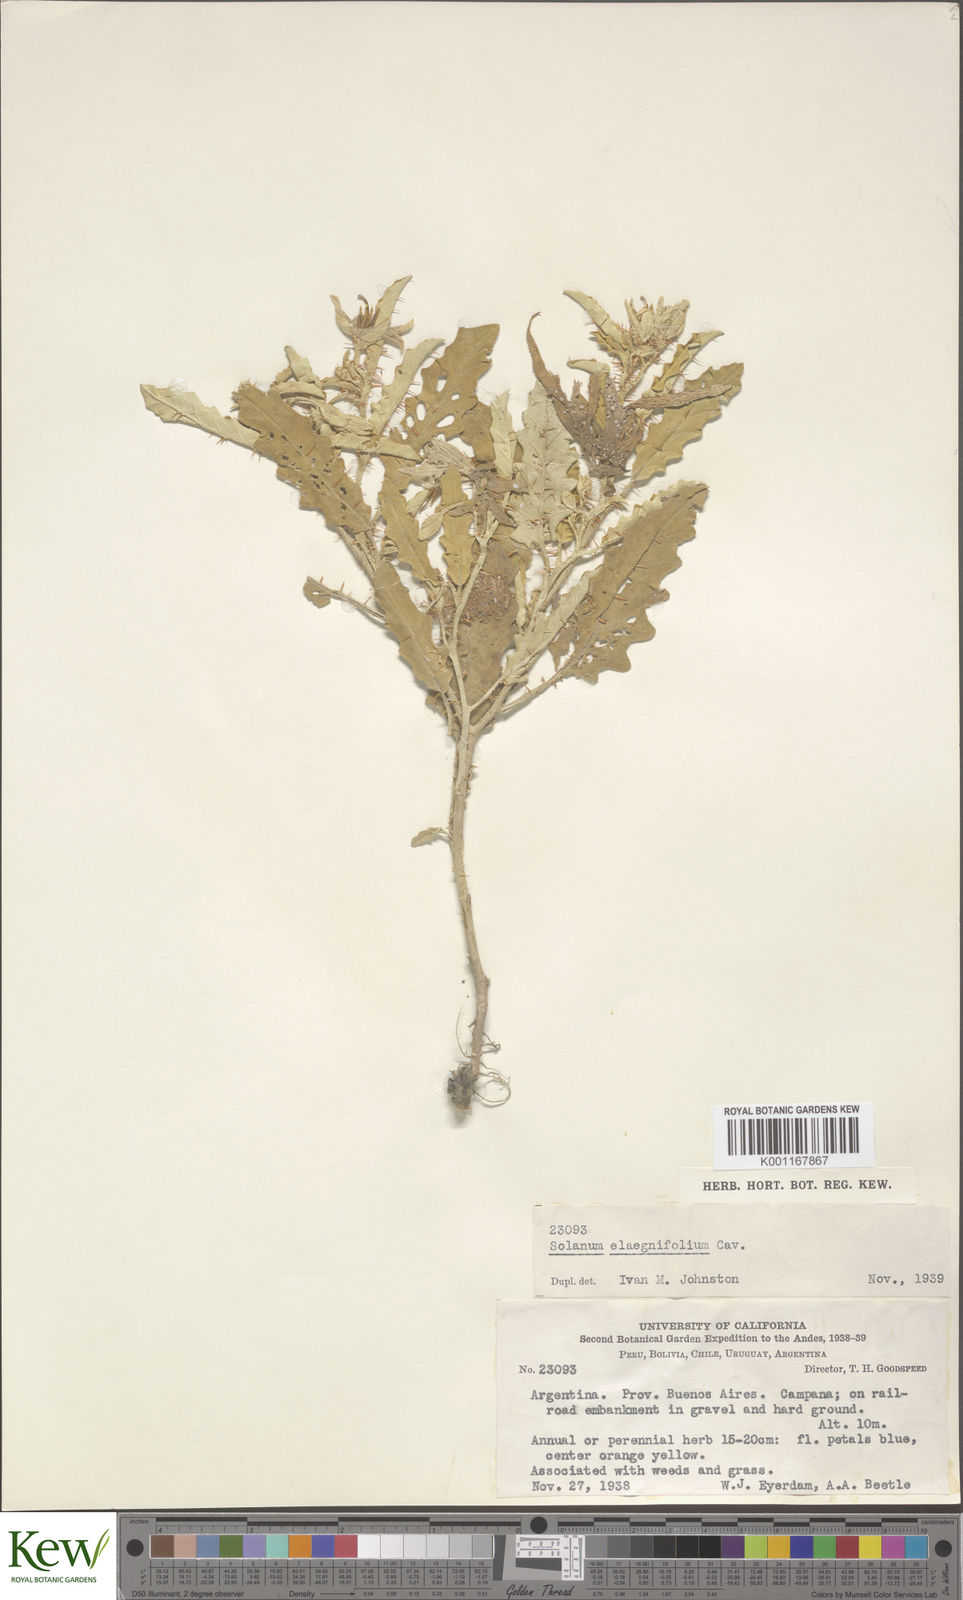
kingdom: Plantae
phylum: Tracheophyta
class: Magnoliopsida
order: Solanales
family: Solanaceae
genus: Solanum
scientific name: Solanum elaeagnifolium
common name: Silverleaf nightshade
